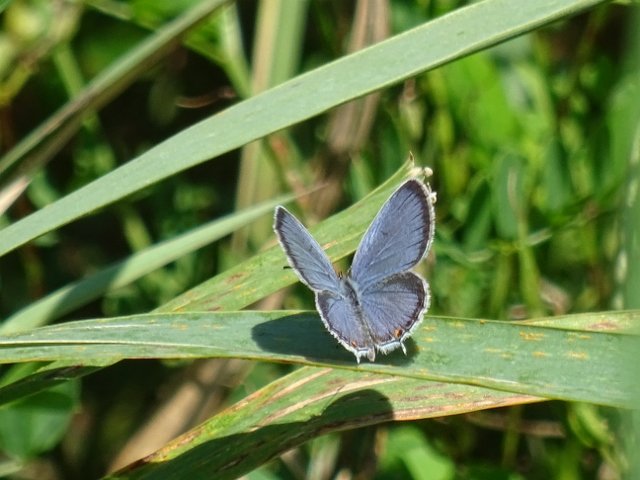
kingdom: Animalia
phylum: Arthropoda
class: Insecta
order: Lepidoptera
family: Lycaenidae
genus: Elkalyce
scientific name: Elkalyce comyntas
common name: Eastern Tailed-Blue
